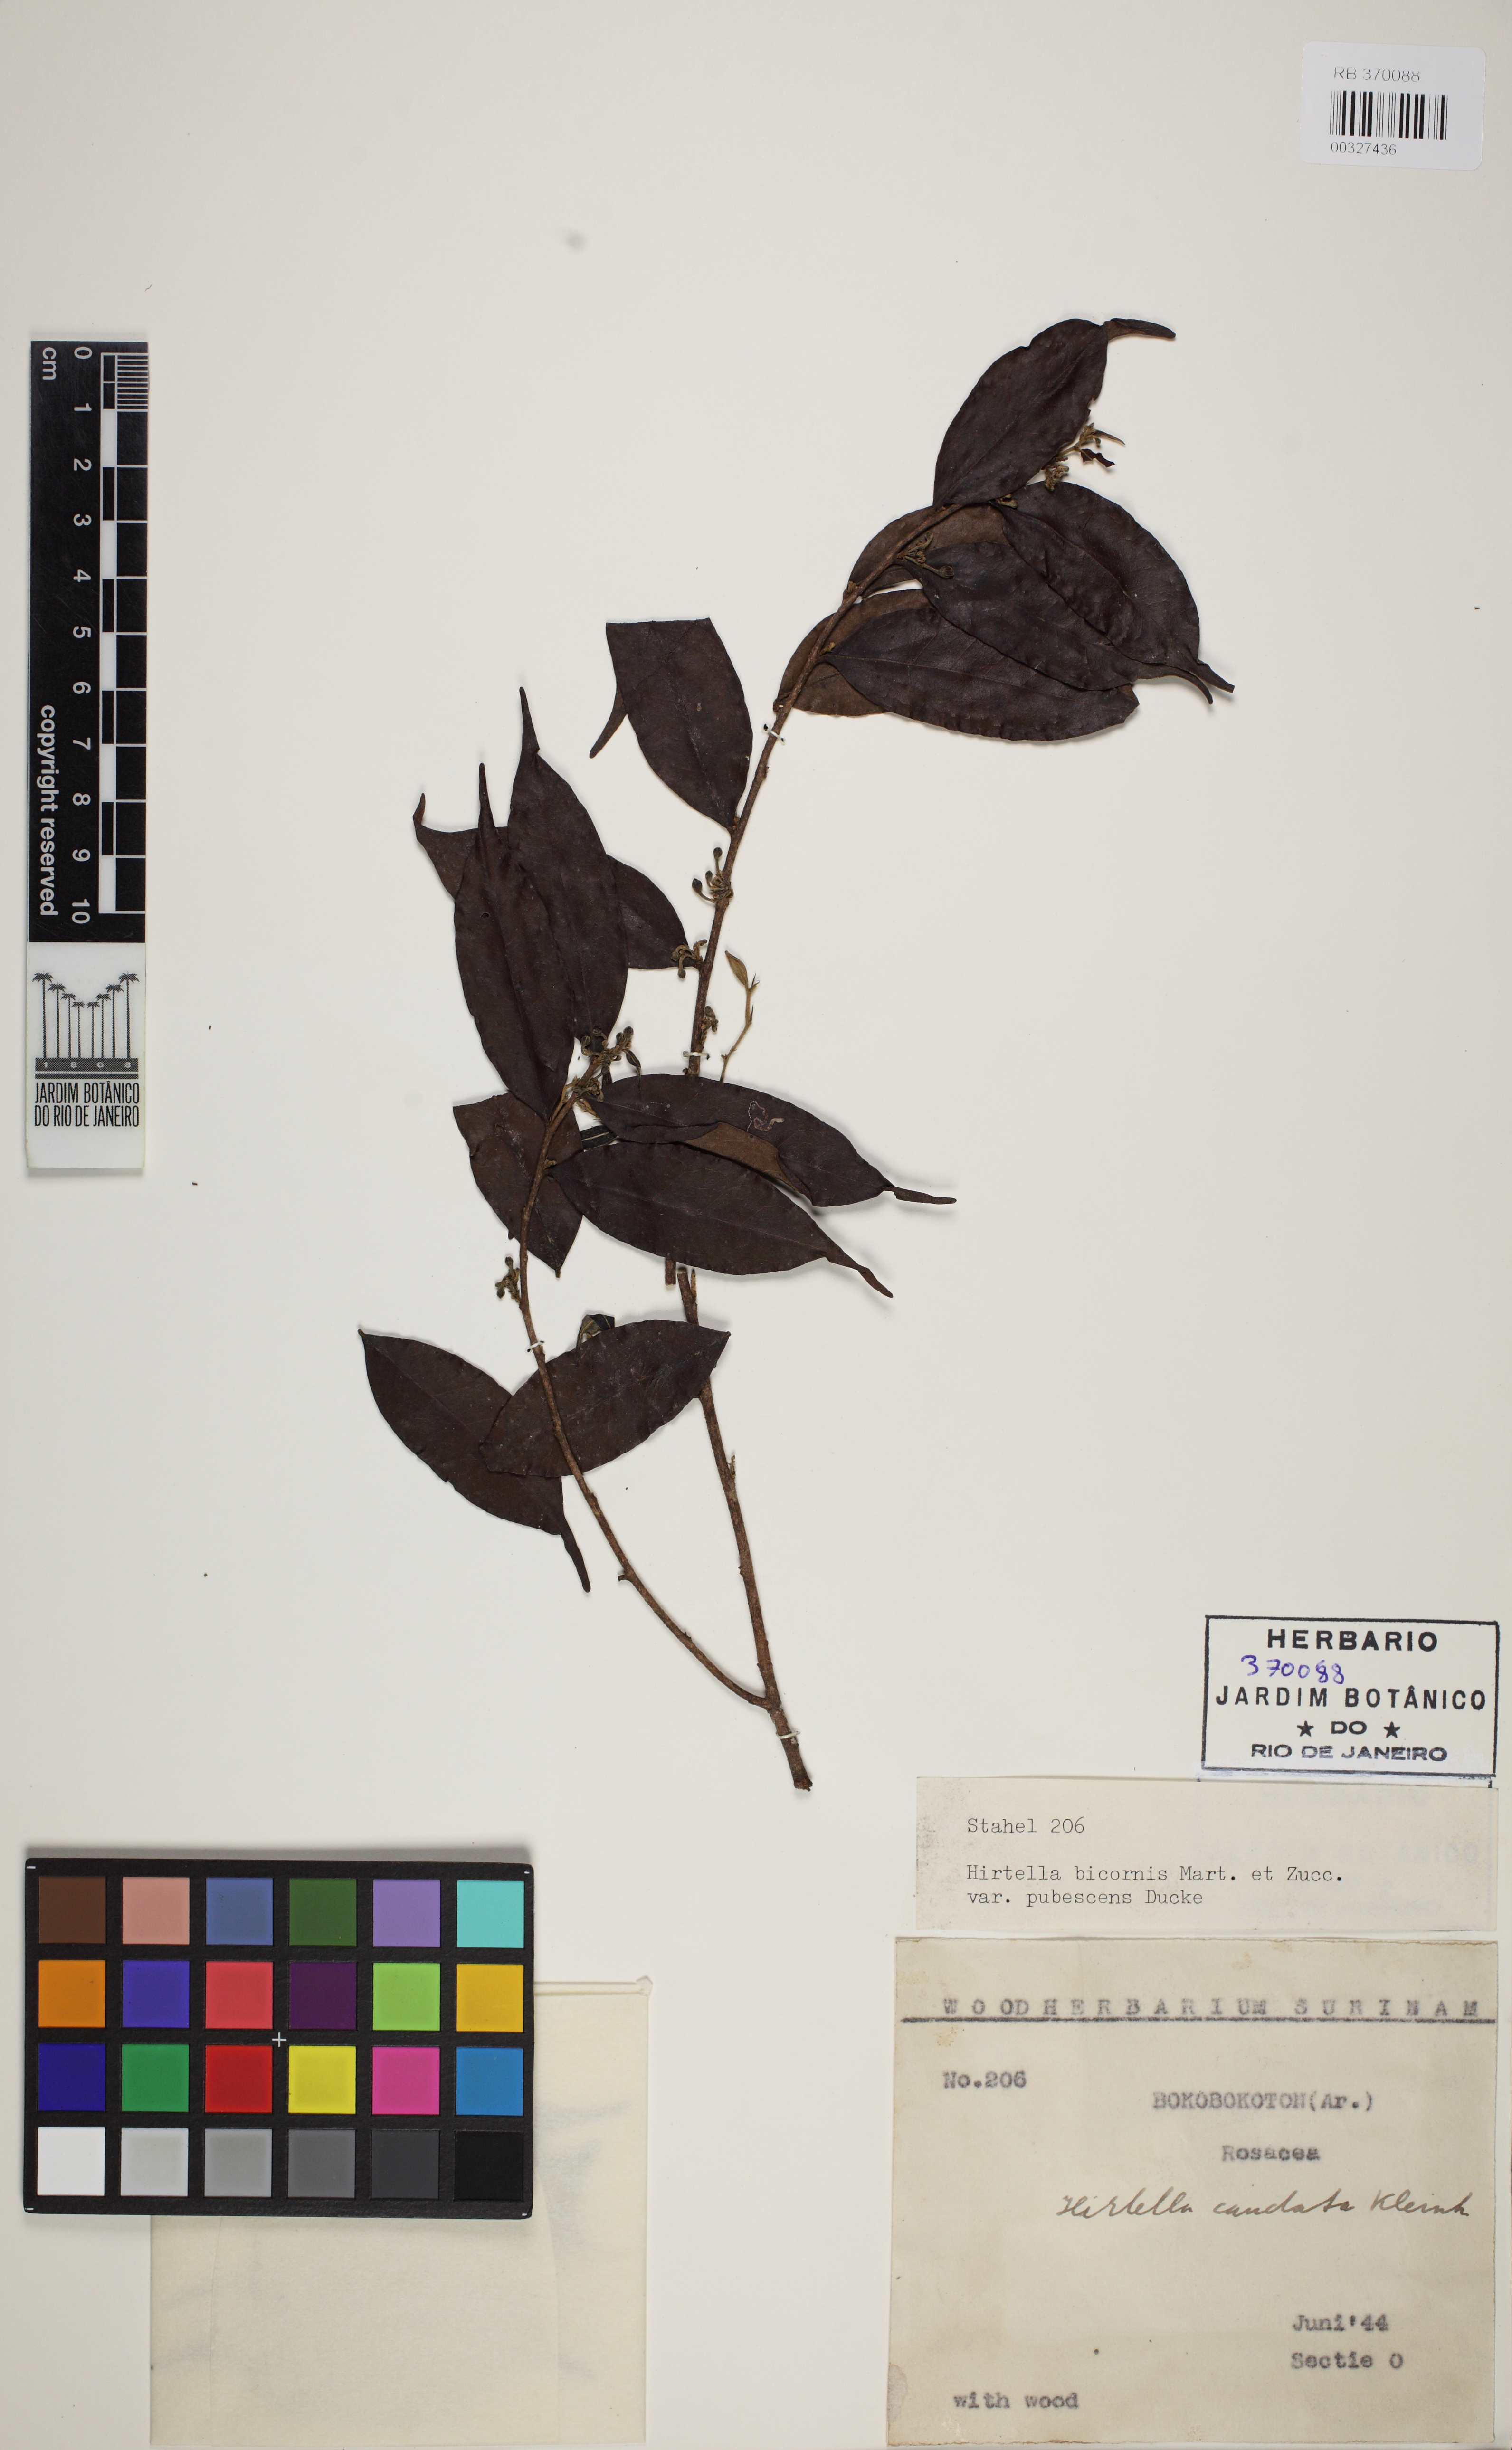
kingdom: Plantae
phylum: Tracheophyta
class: Magnoliopsida
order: Malpighiales
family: Chrysobalanaceae
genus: Hirtella
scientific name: Hirtella bicornis
